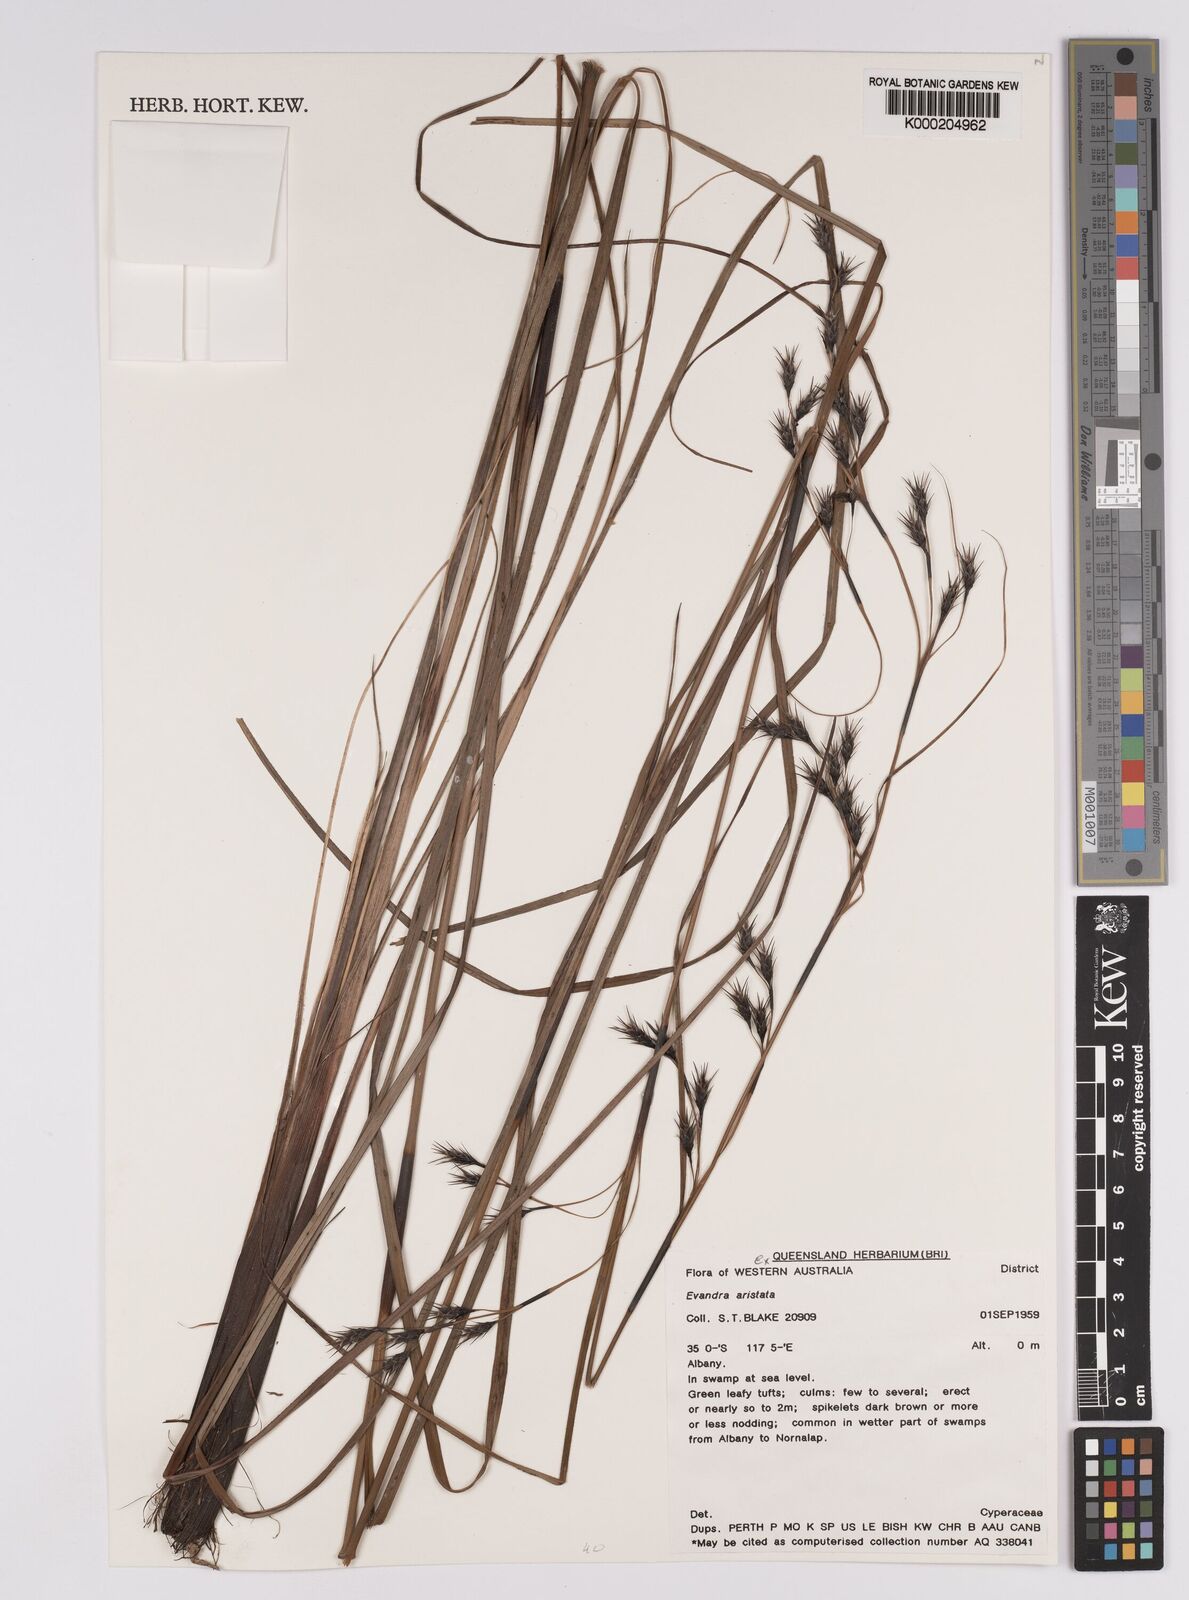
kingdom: Plantae
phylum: Tracheophyta
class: Liliopsida
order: Poales
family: Cyperaceae
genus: Evandra
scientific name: Evandra aristata
